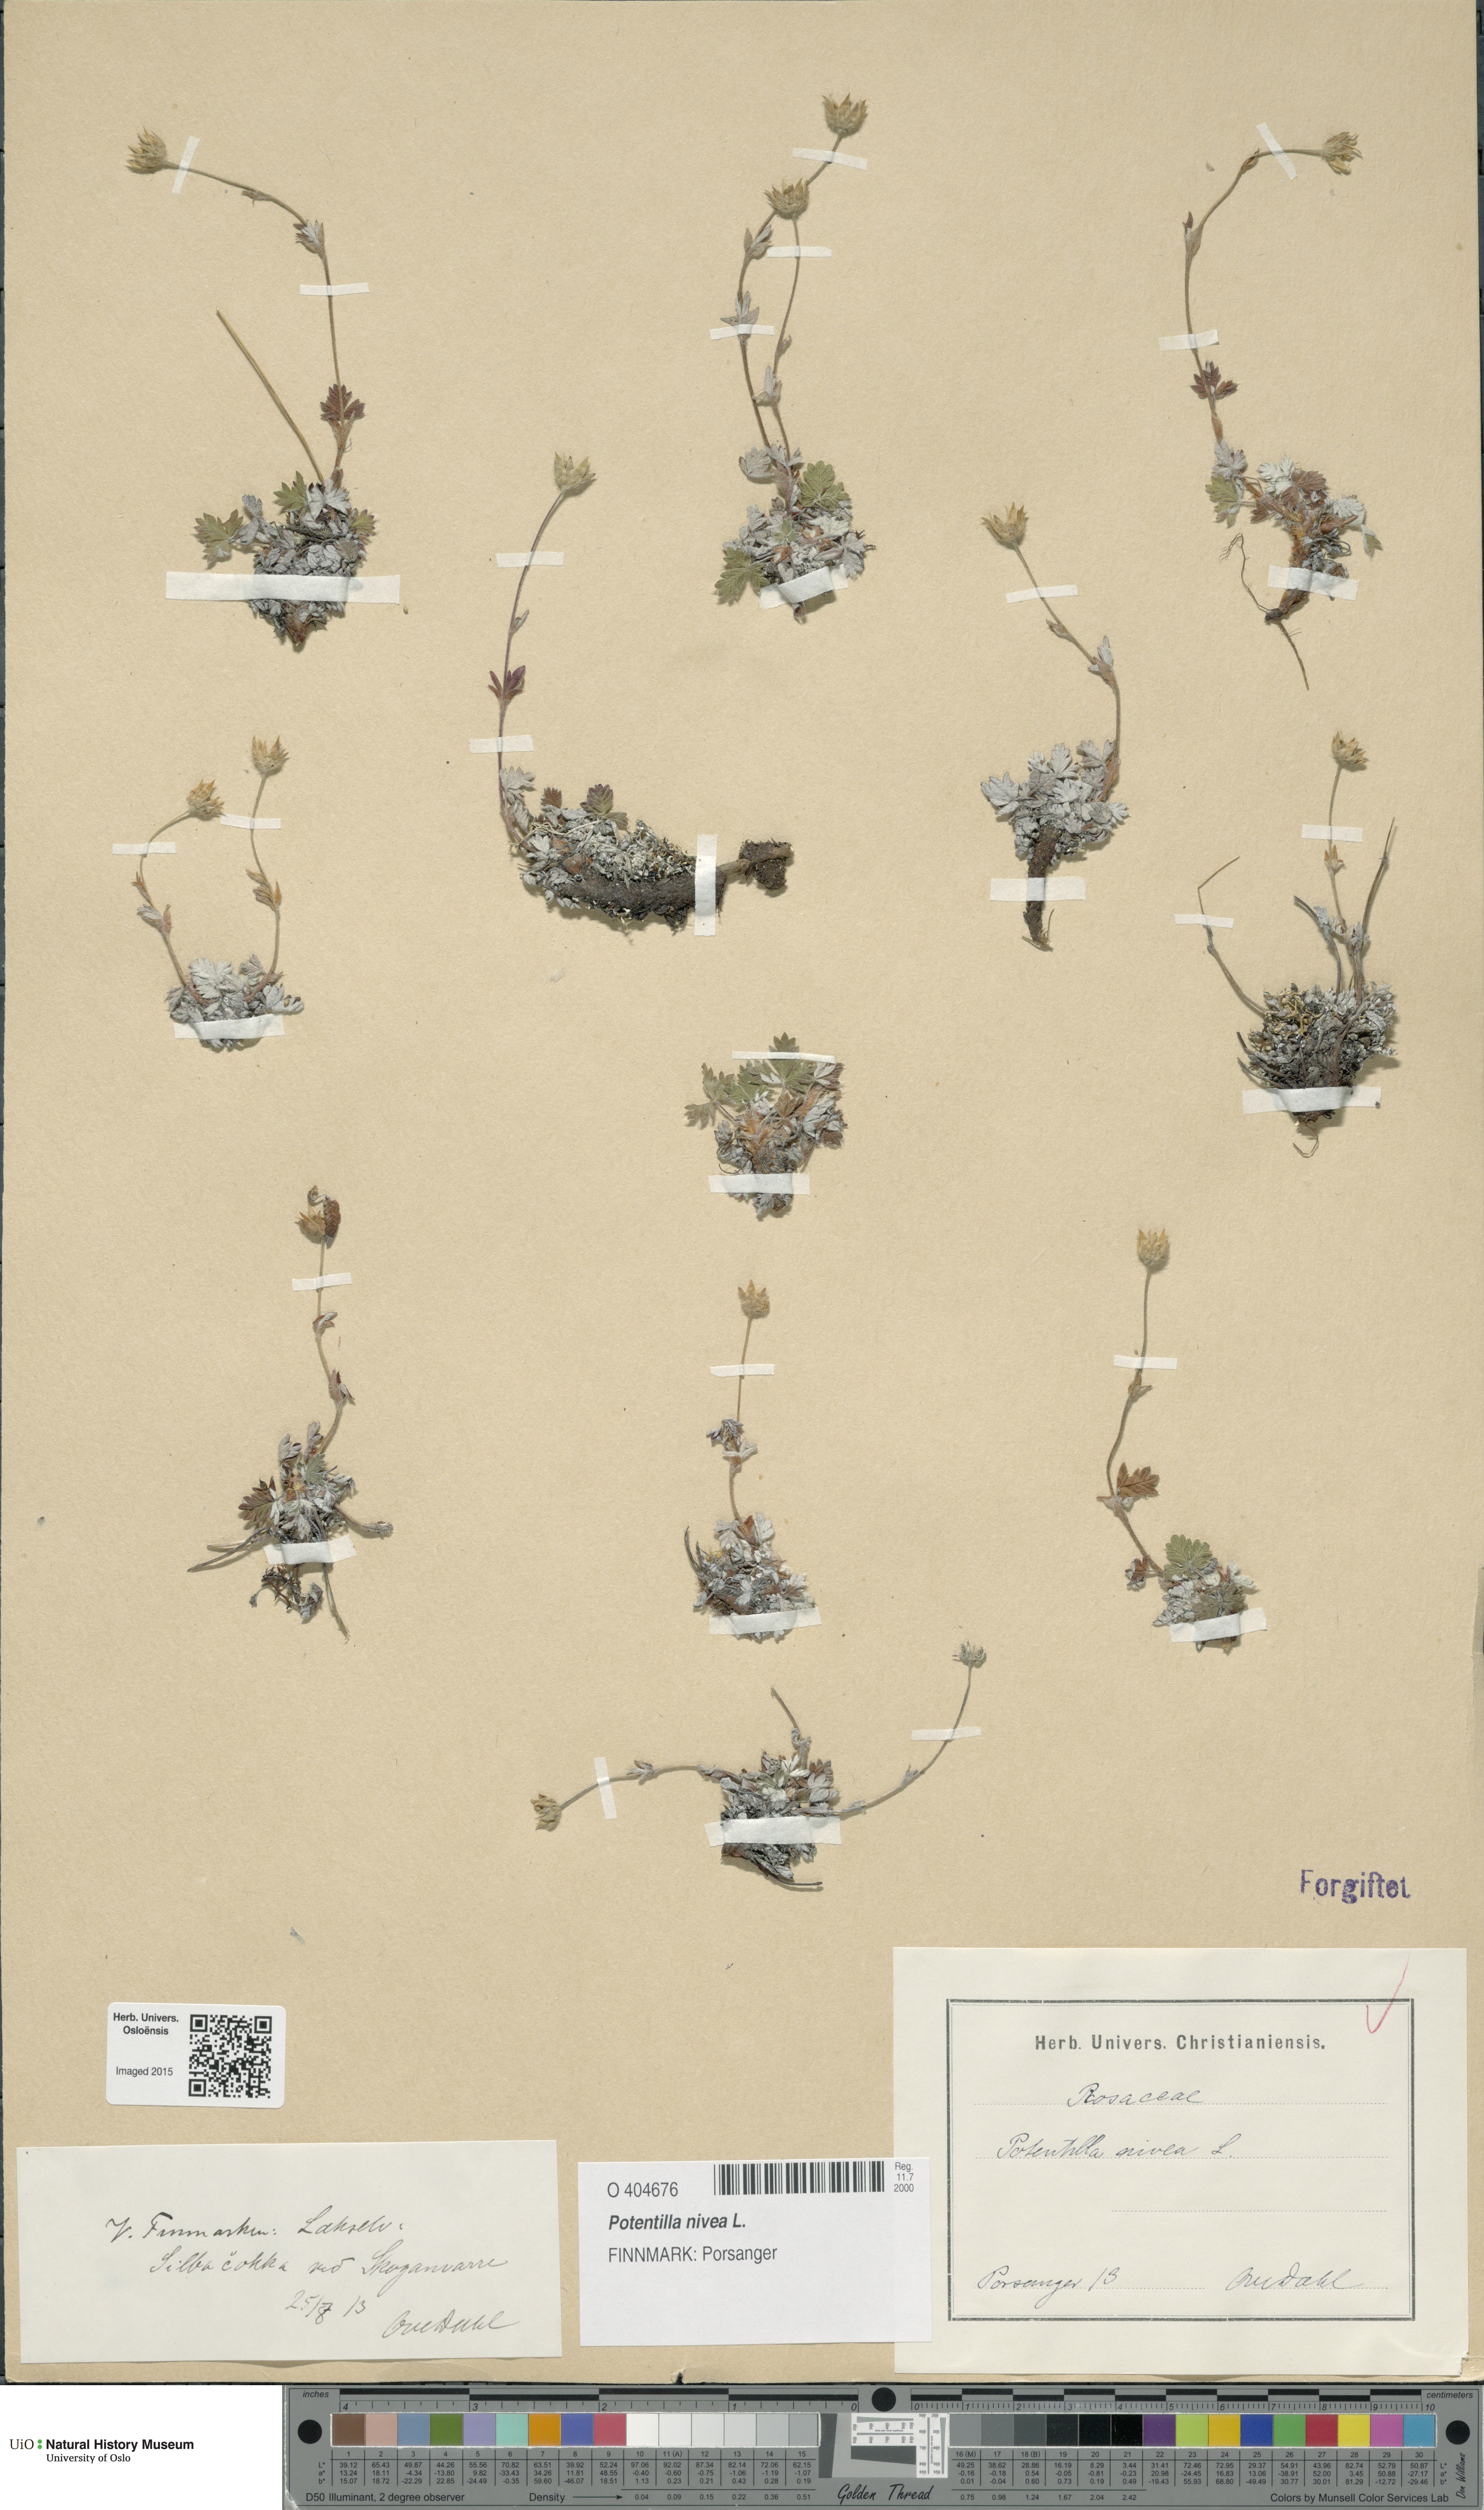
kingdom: Plantae
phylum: Tracheophyta
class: Magnoliopsida
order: Rosales
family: Rosaceae
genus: Potentilla
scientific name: Potentilla arenosa
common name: Bluff cinquefoil
